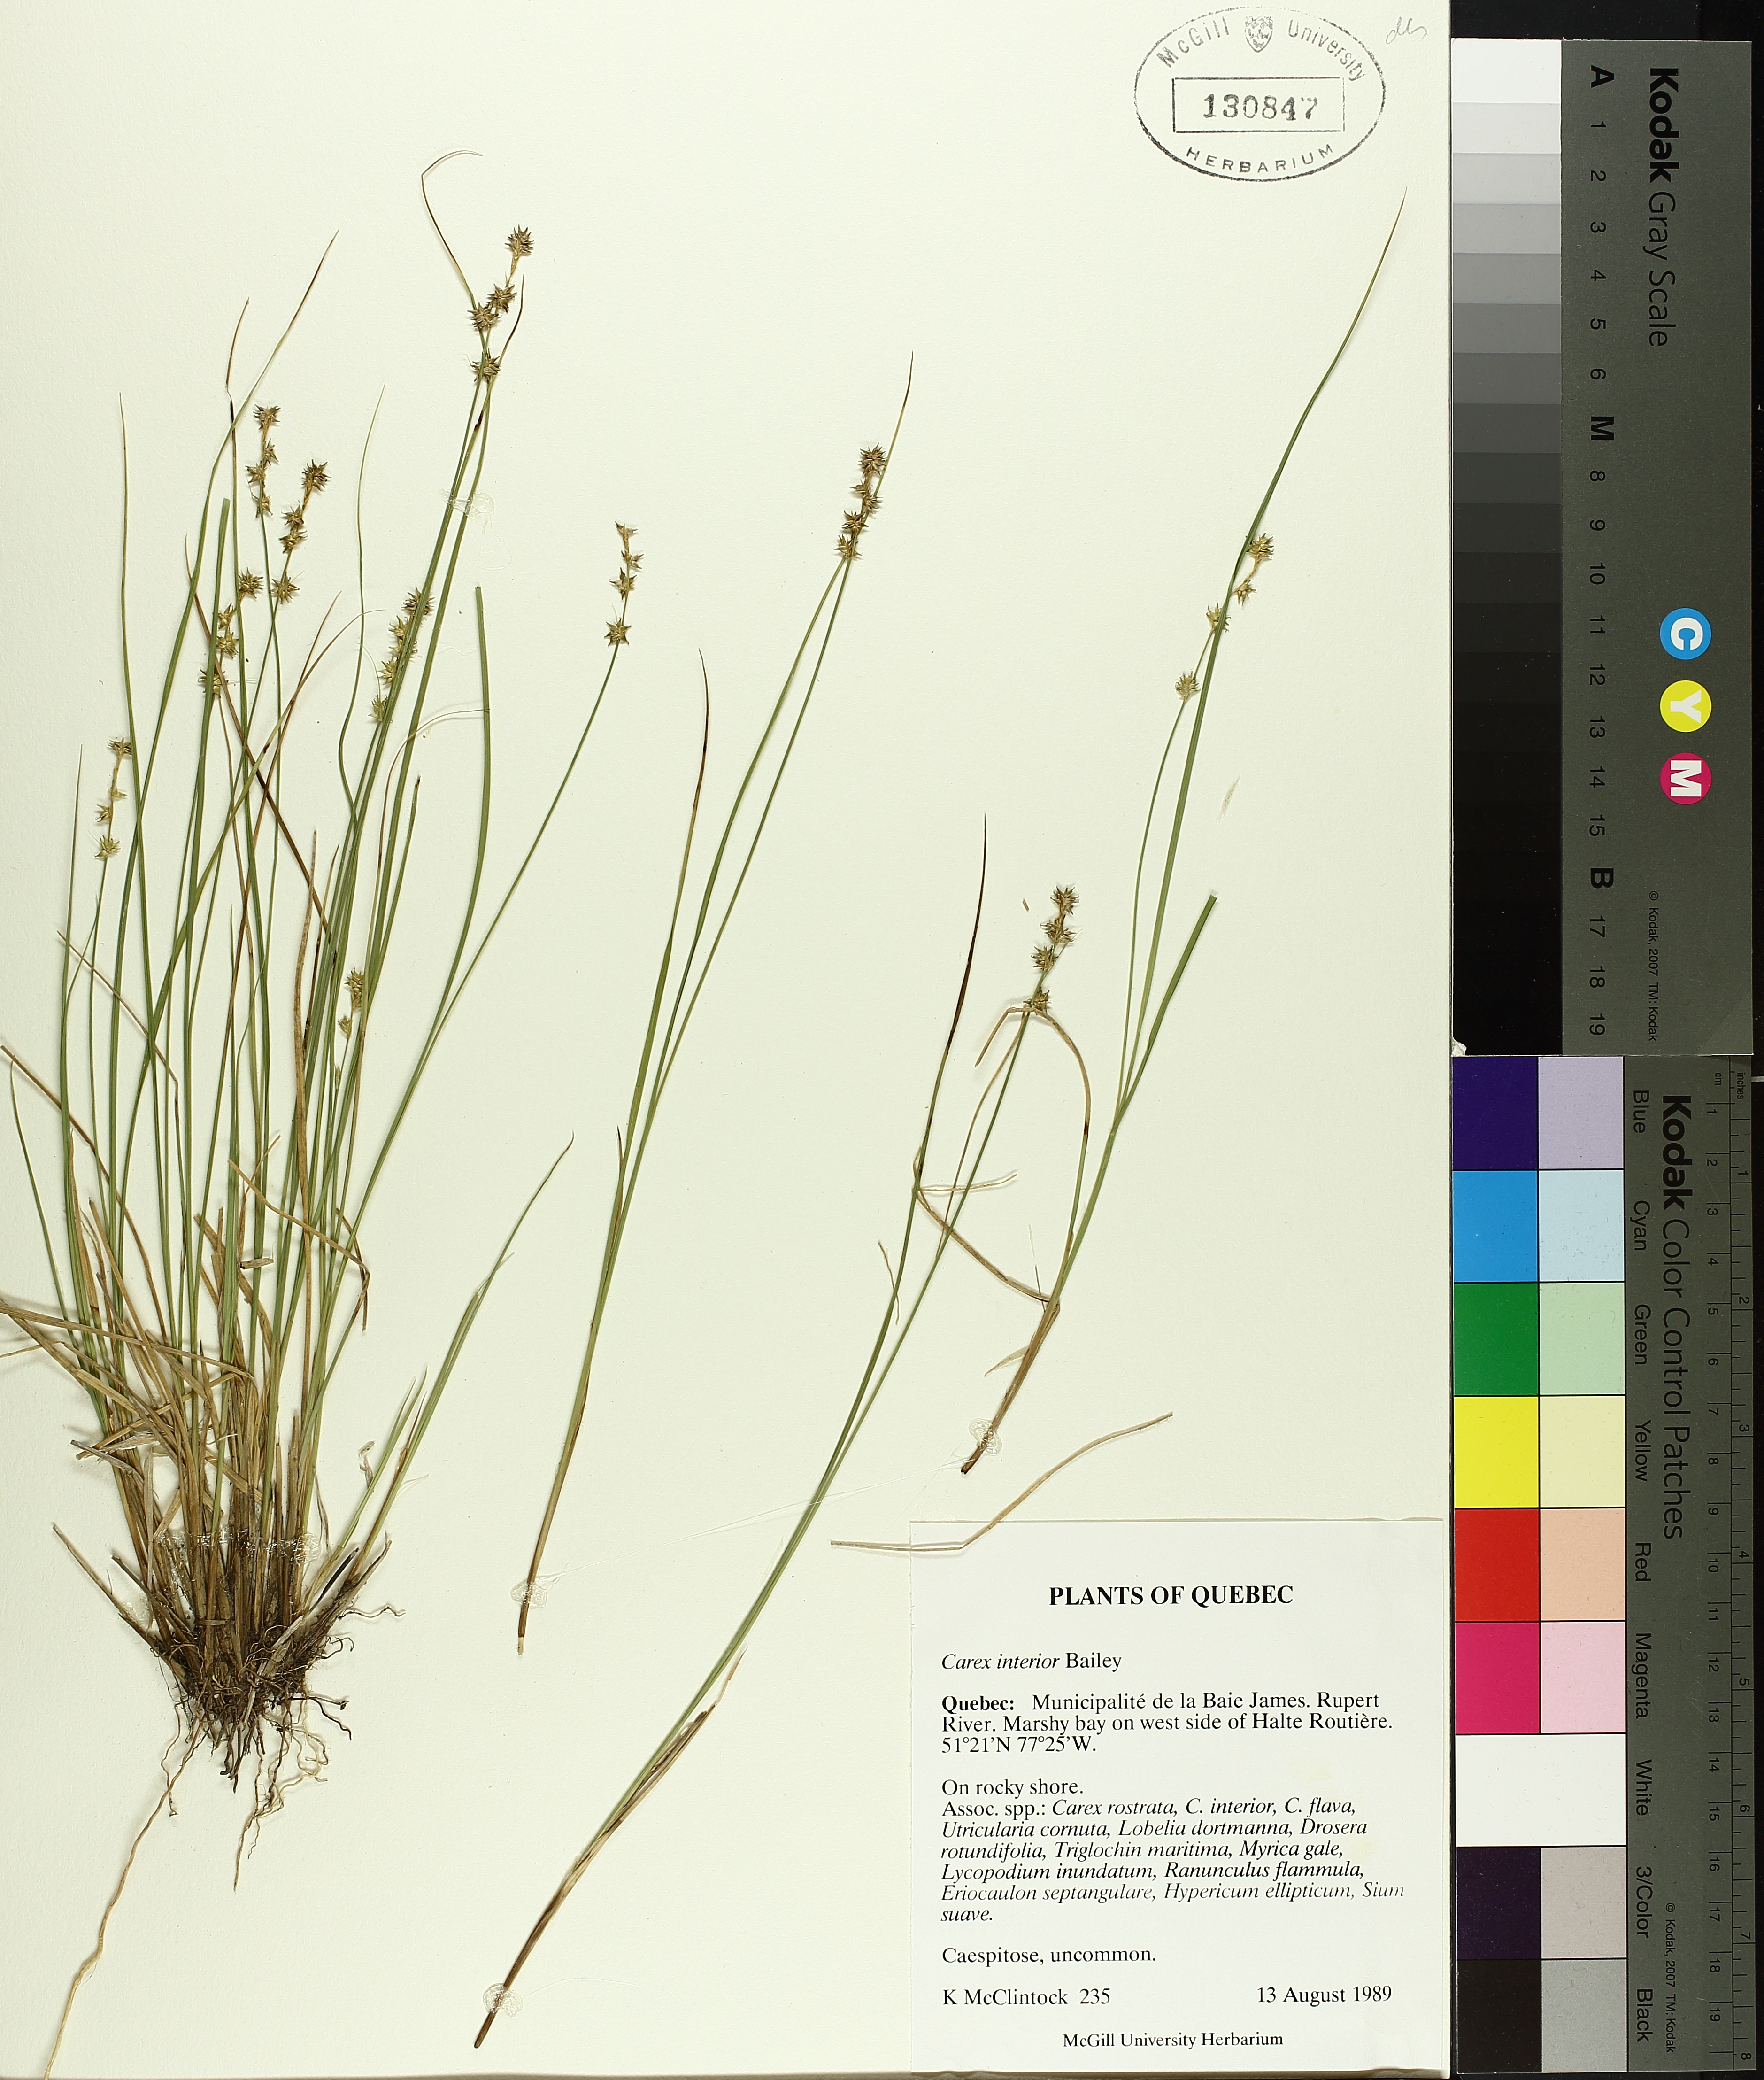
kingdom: Plantae
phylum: Tracheophyta
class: Liliopsida
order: Poales
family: Cyperaceae
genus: Carex
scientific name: Carex interior
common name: Inland sedge
